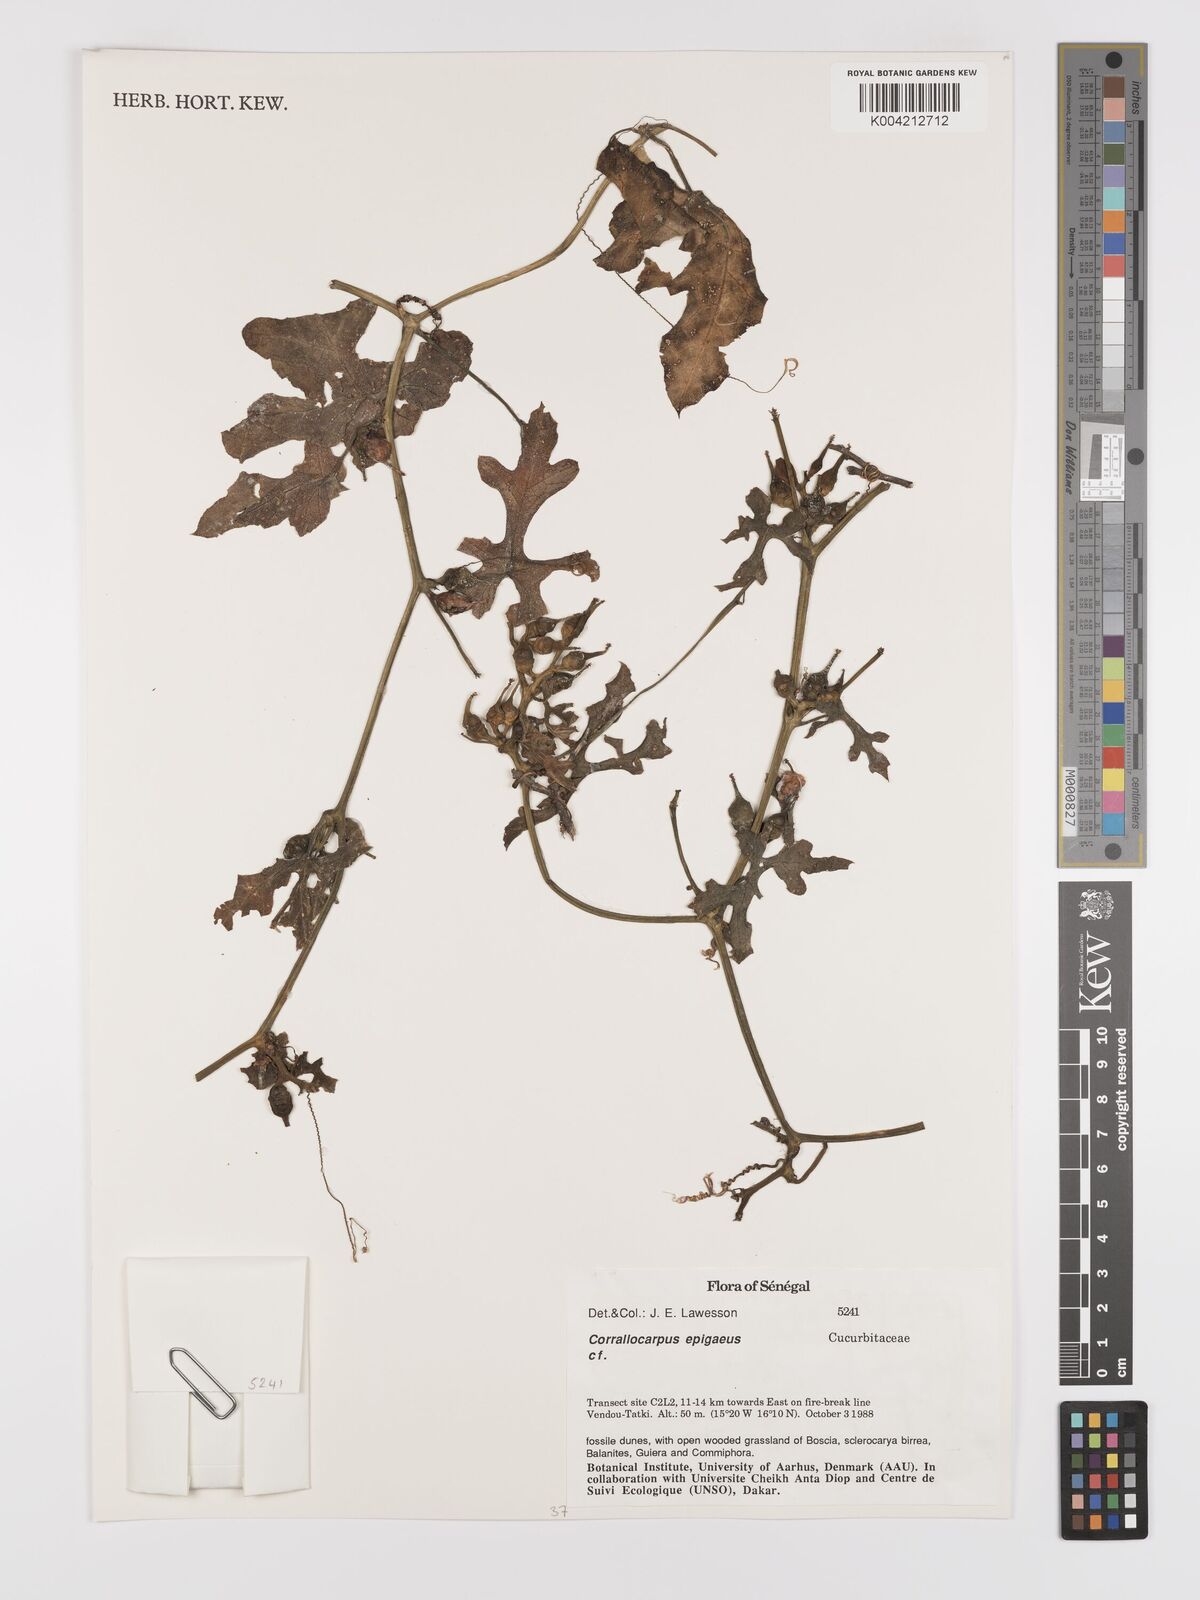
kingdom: Plantae
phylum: Tracheophyta
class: Magnoliopsida
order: Cucurbitales
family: Cucurbitaceae
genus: Corallocarpus
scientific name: Corallocarpus epigaeus
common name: Indian bryonia
